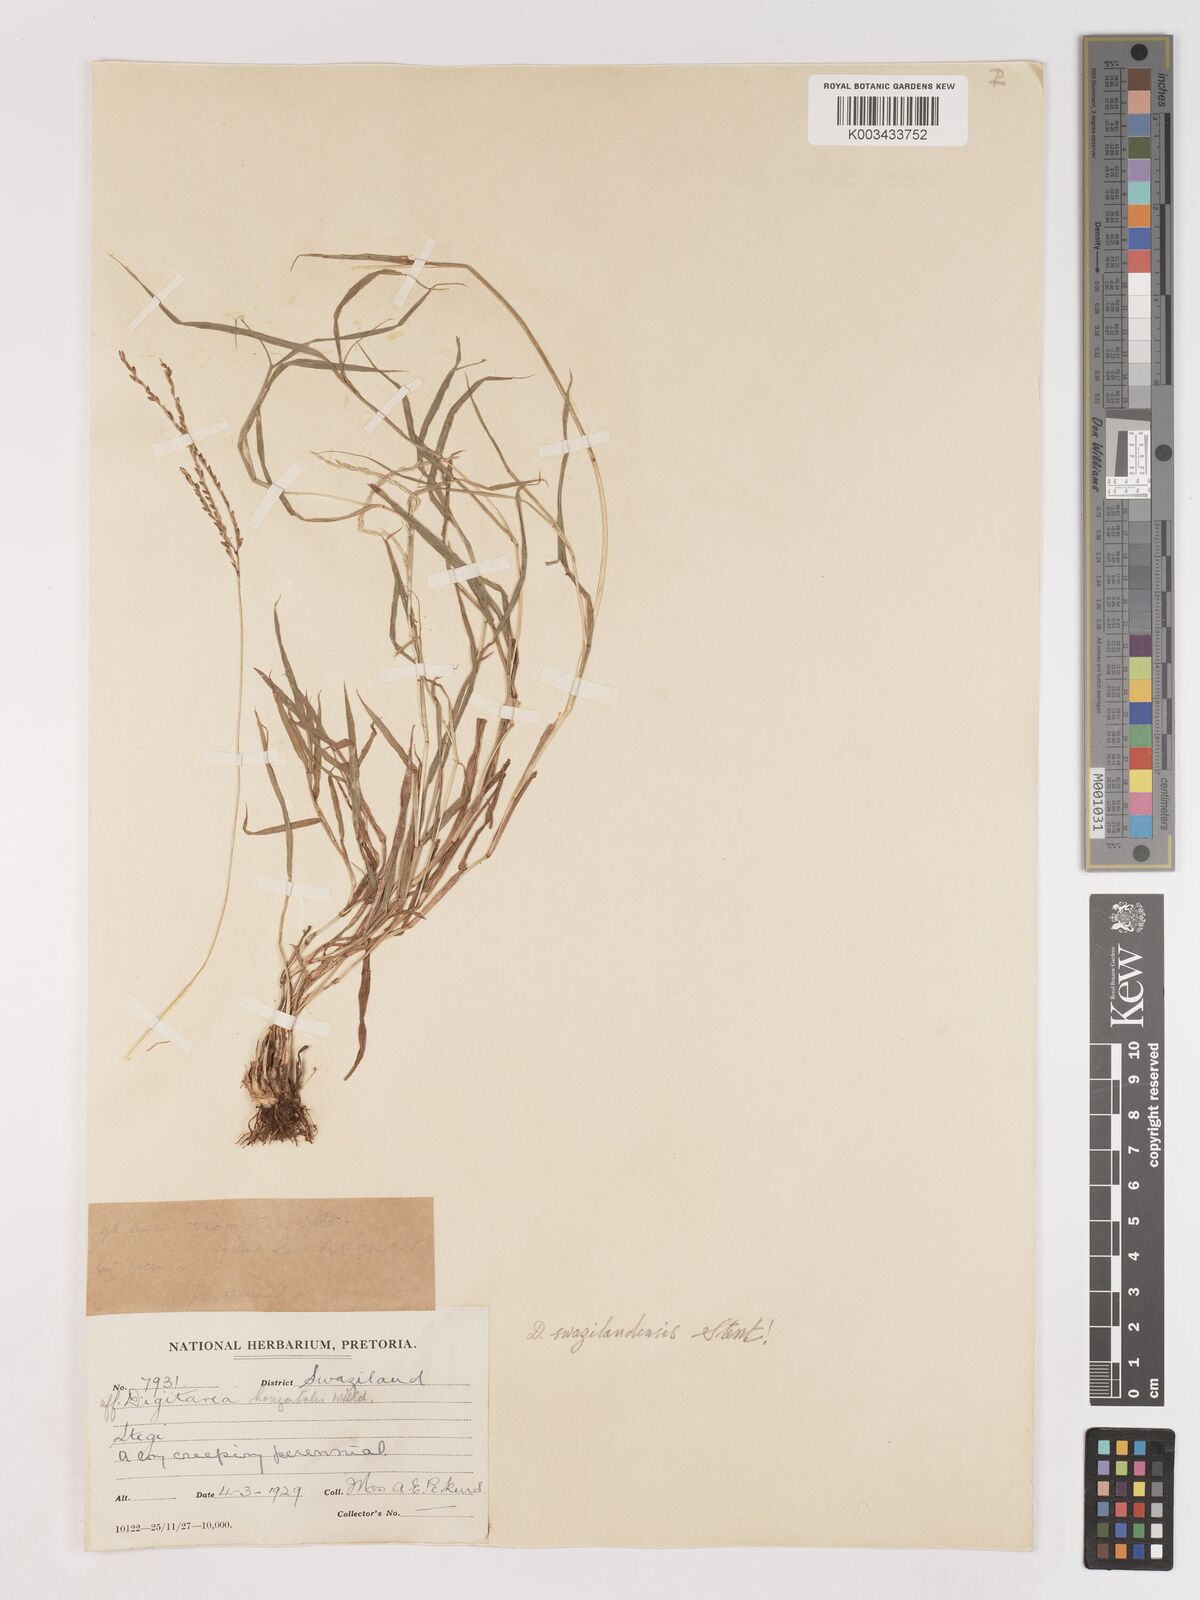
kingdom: Plantae
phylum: Tracheophyta
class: Liliopsida
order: Poales
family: Poaceae
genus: Digitaria
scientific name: Digitaria didactyla
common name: Blue couch
